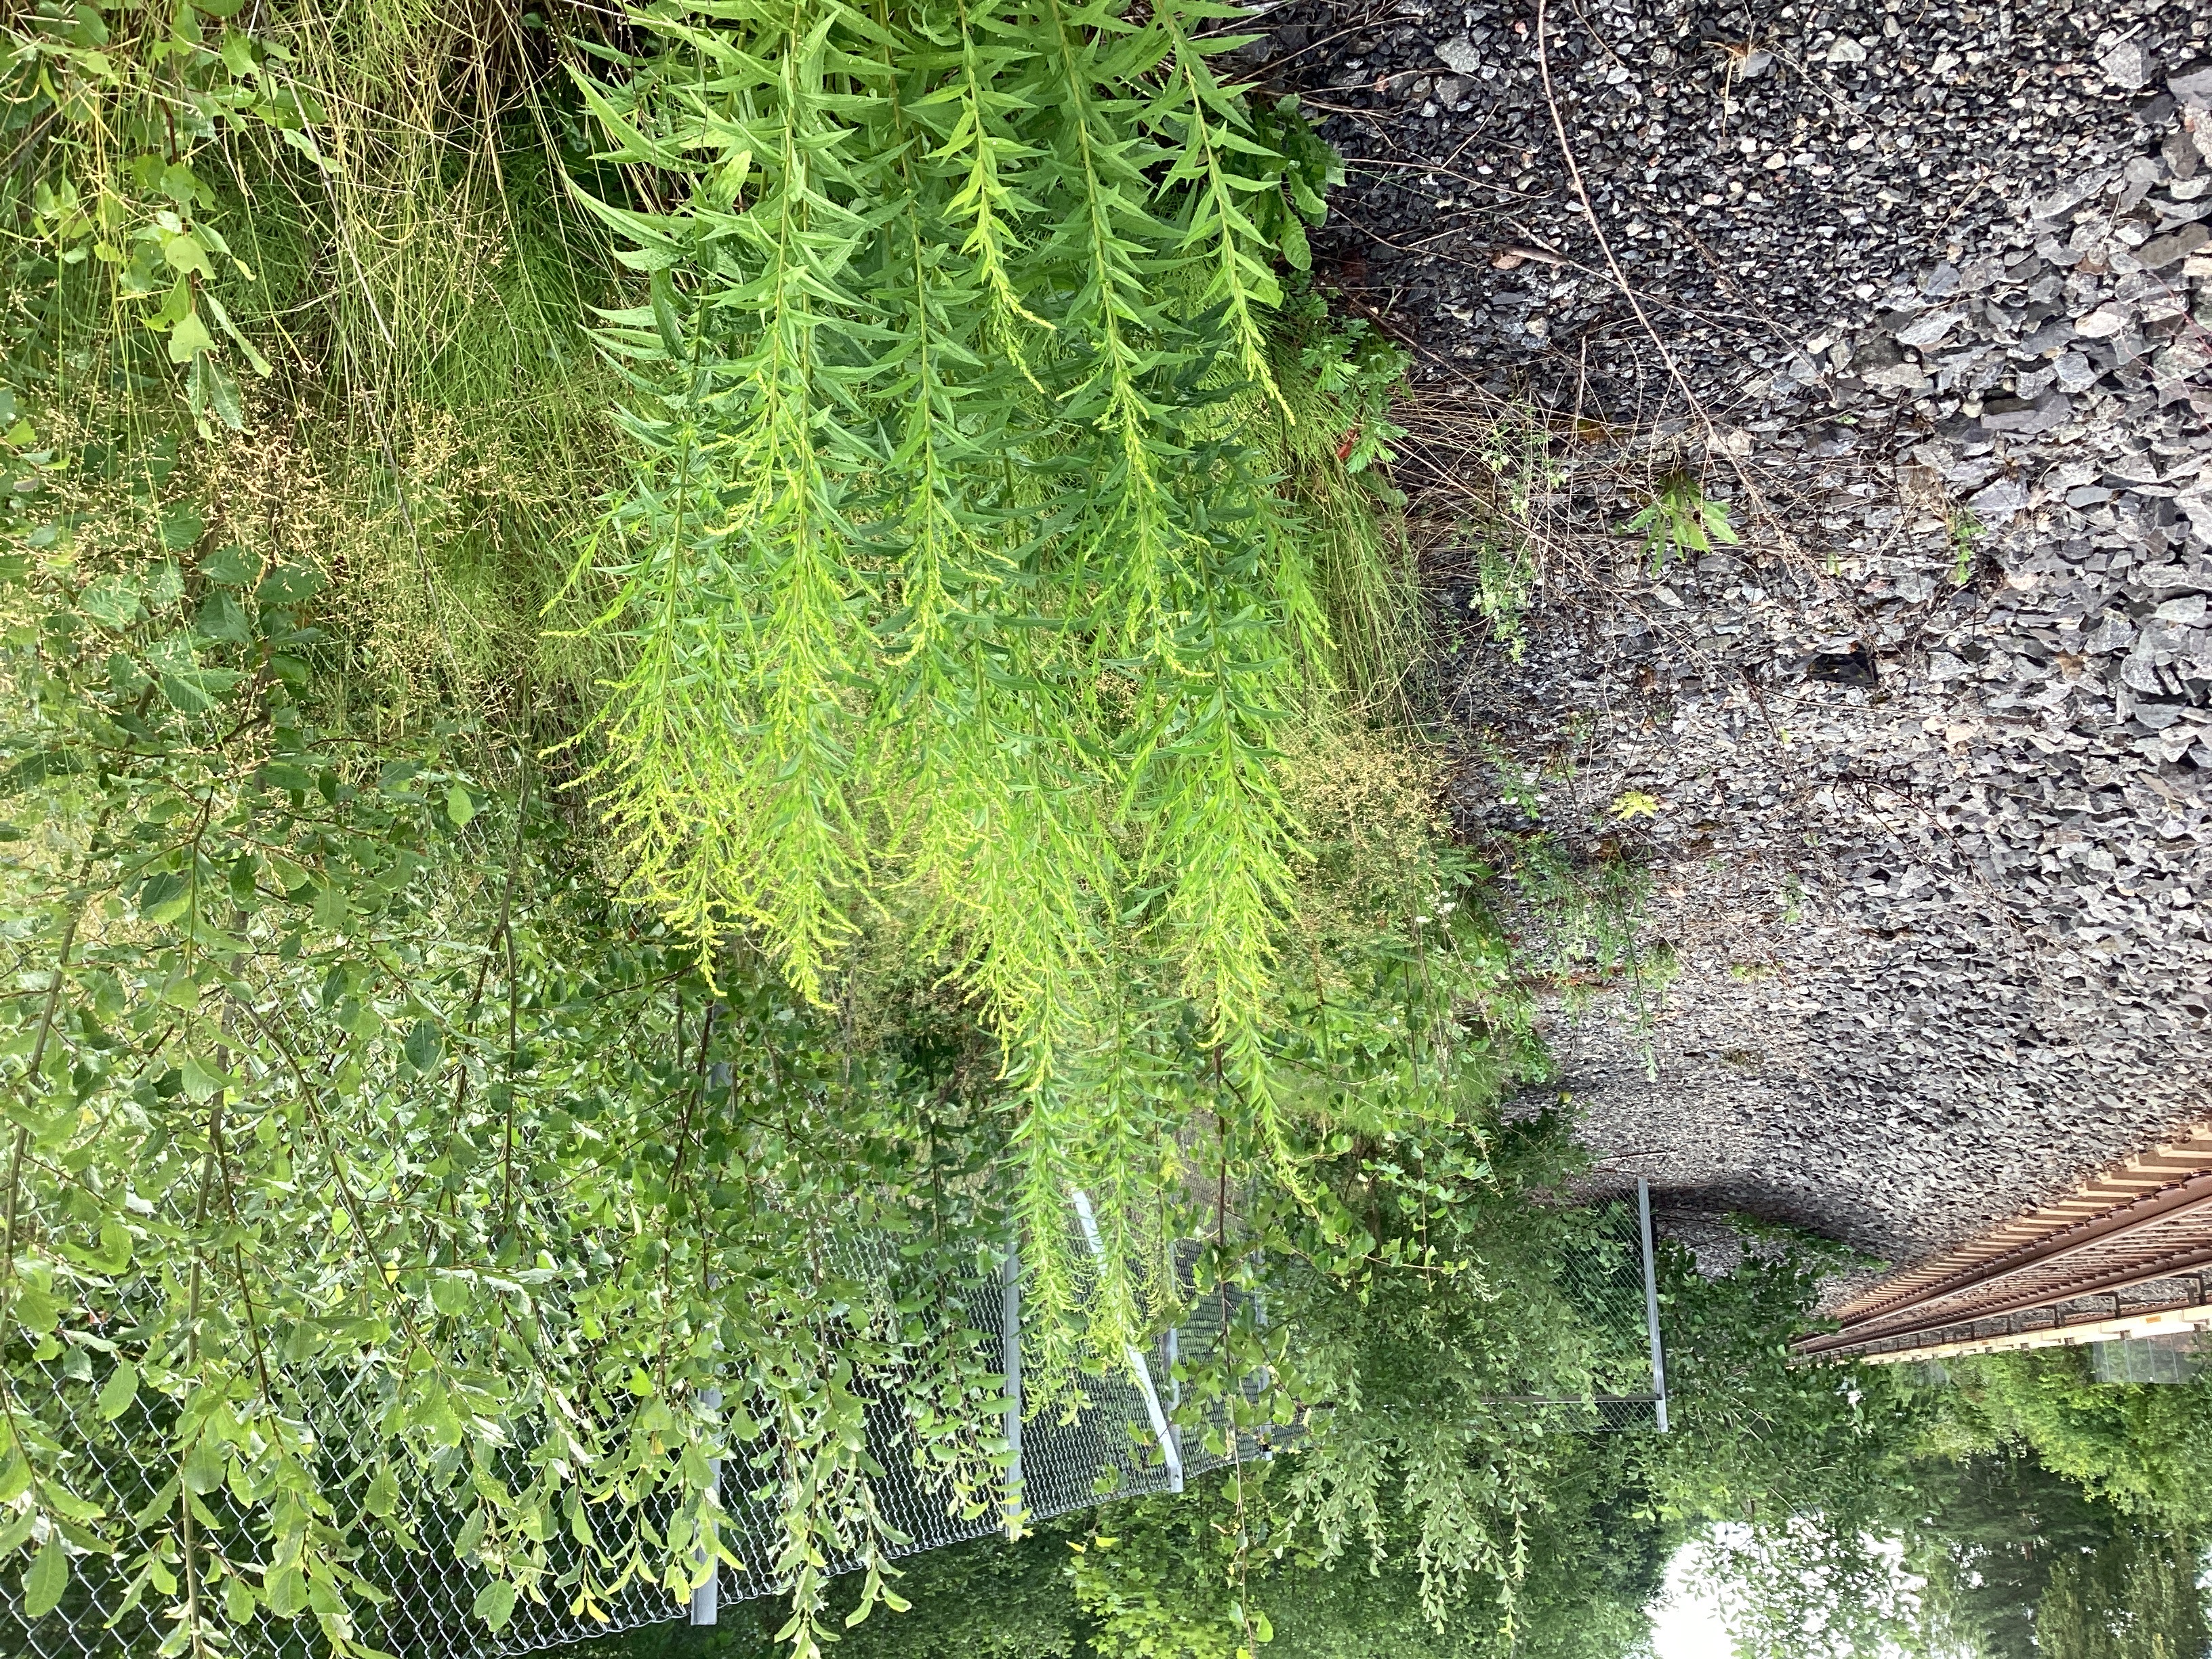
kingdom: Plantae
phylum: Tracheophyta
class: Magnoliopsida
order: Asterales
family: Asteraceae
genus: Solidago
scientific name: Solidago canadensis
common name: kanadagullris
